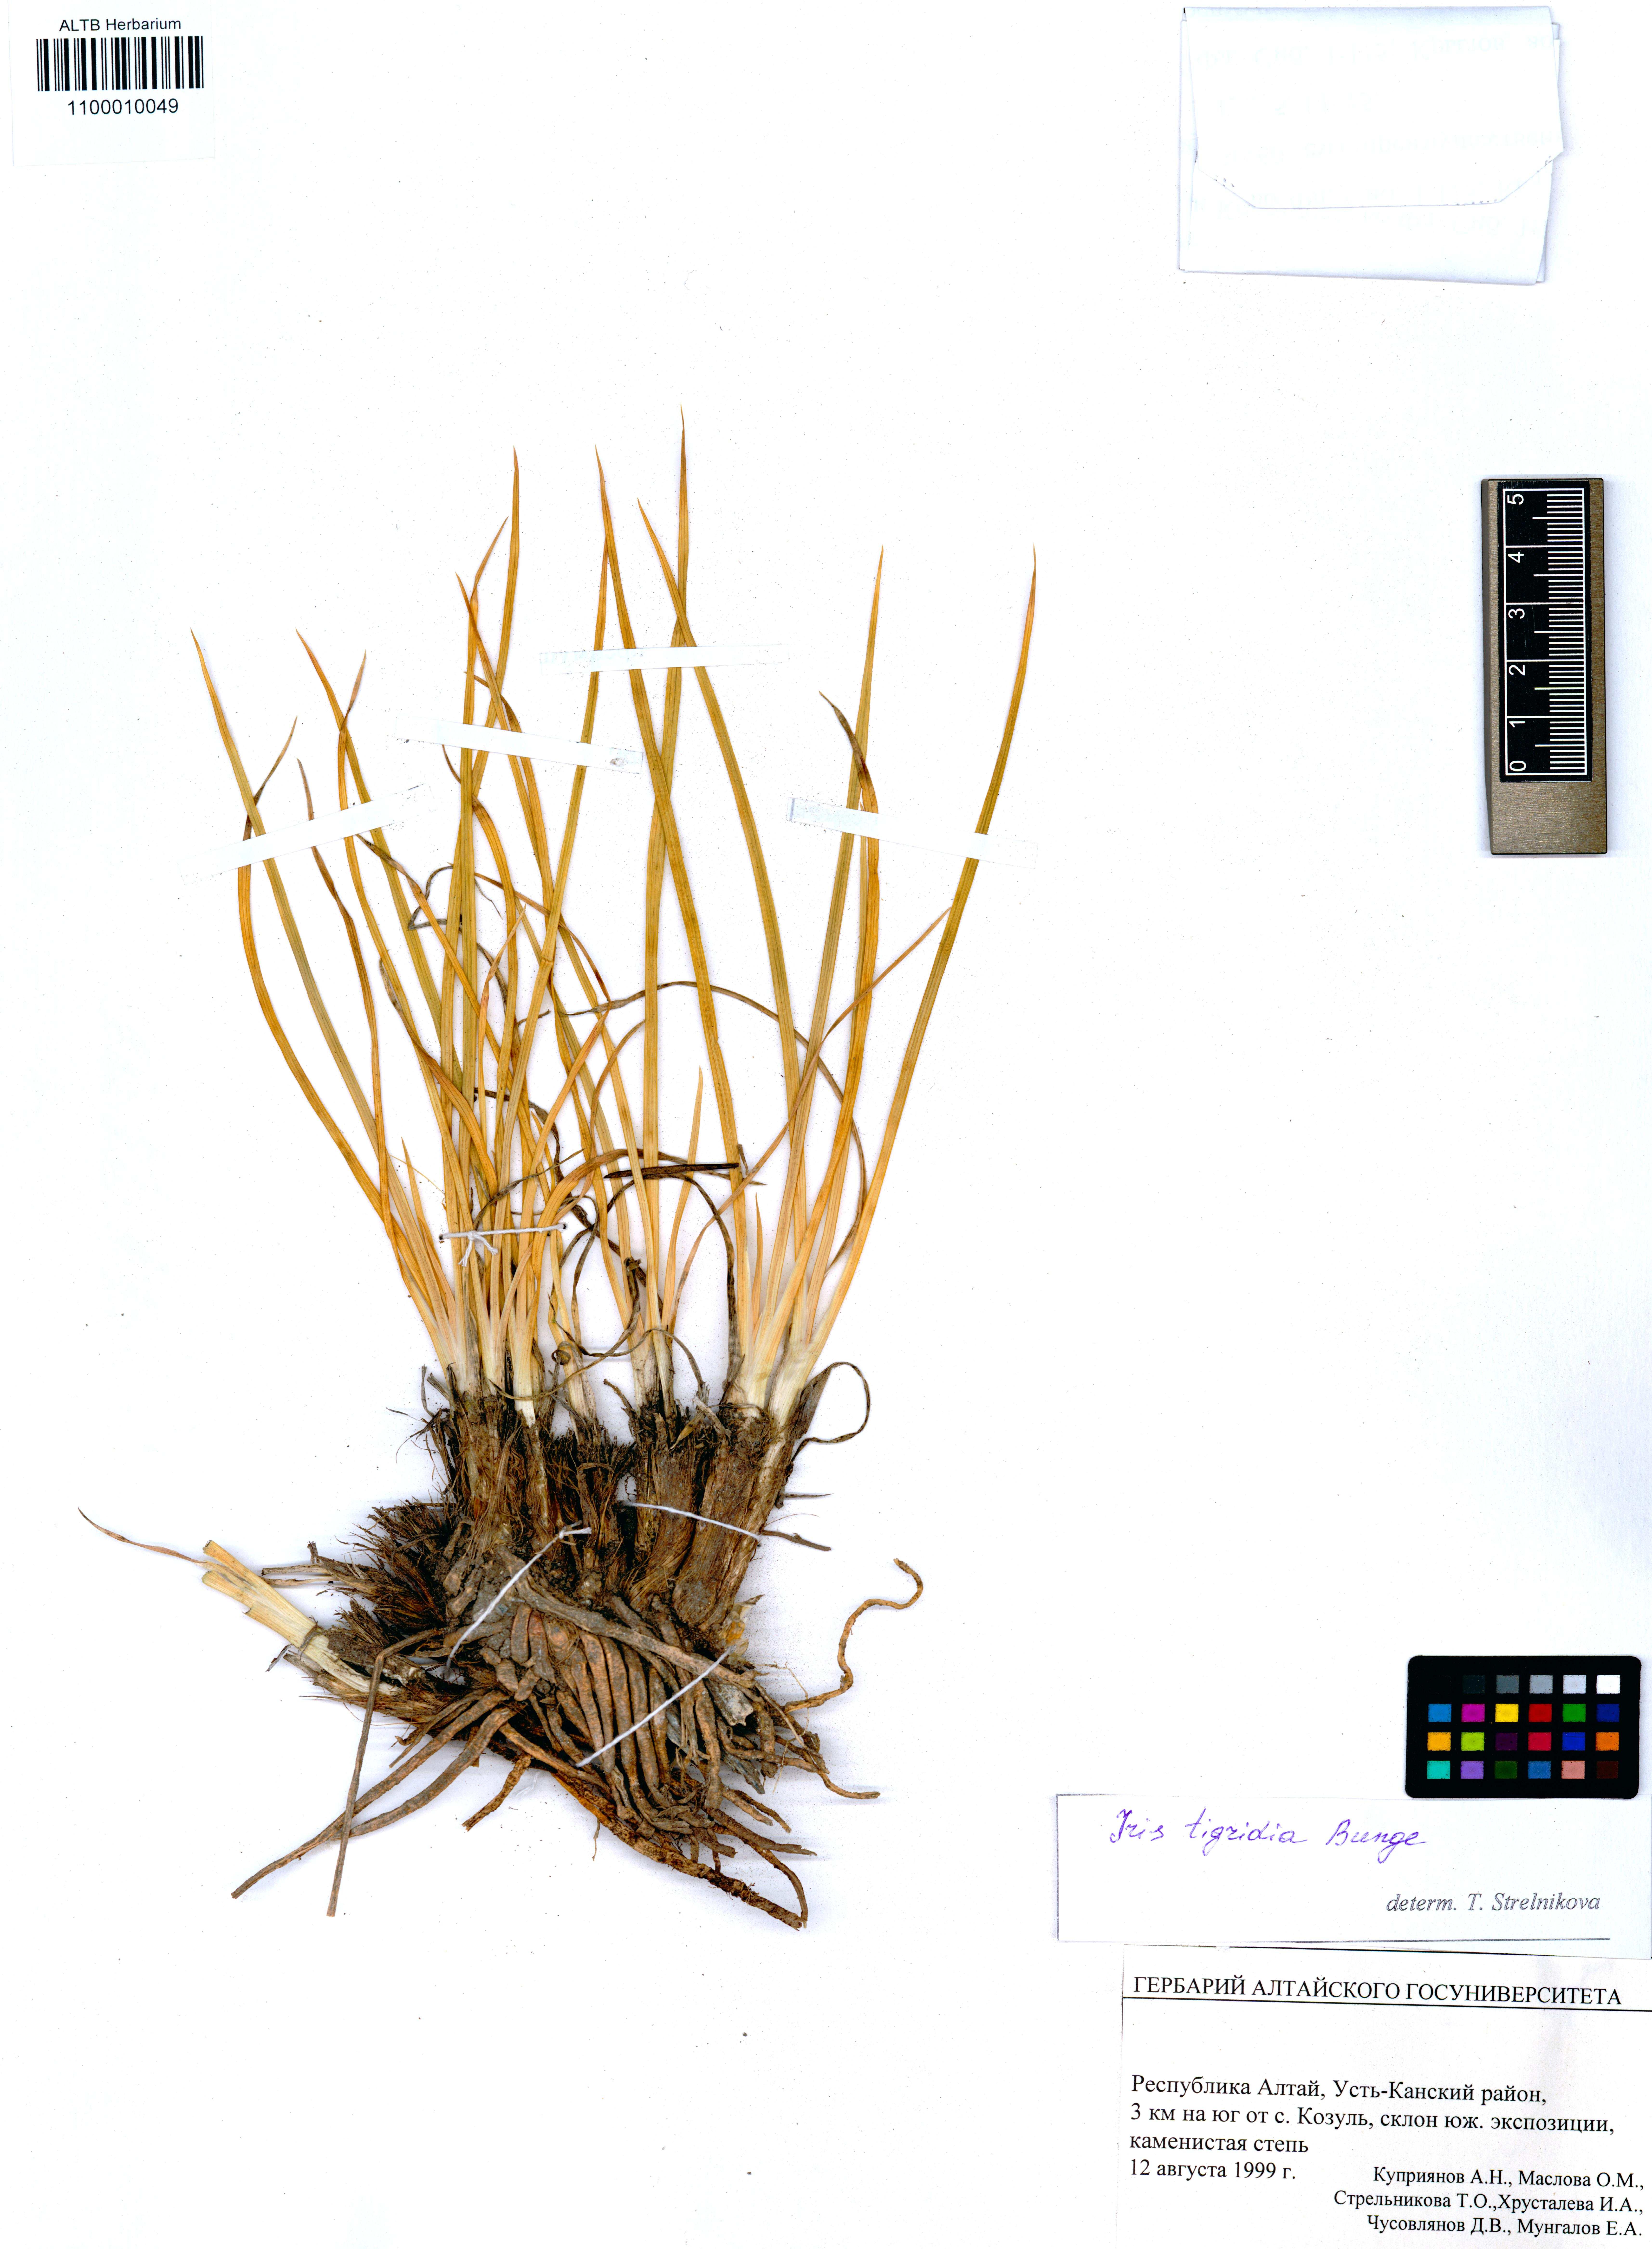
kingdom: Plantae
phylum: Tracheophyta
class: Liliopsida
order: Asparagales
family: Iridaceae
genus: Iris
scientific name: Iris glaucescens
